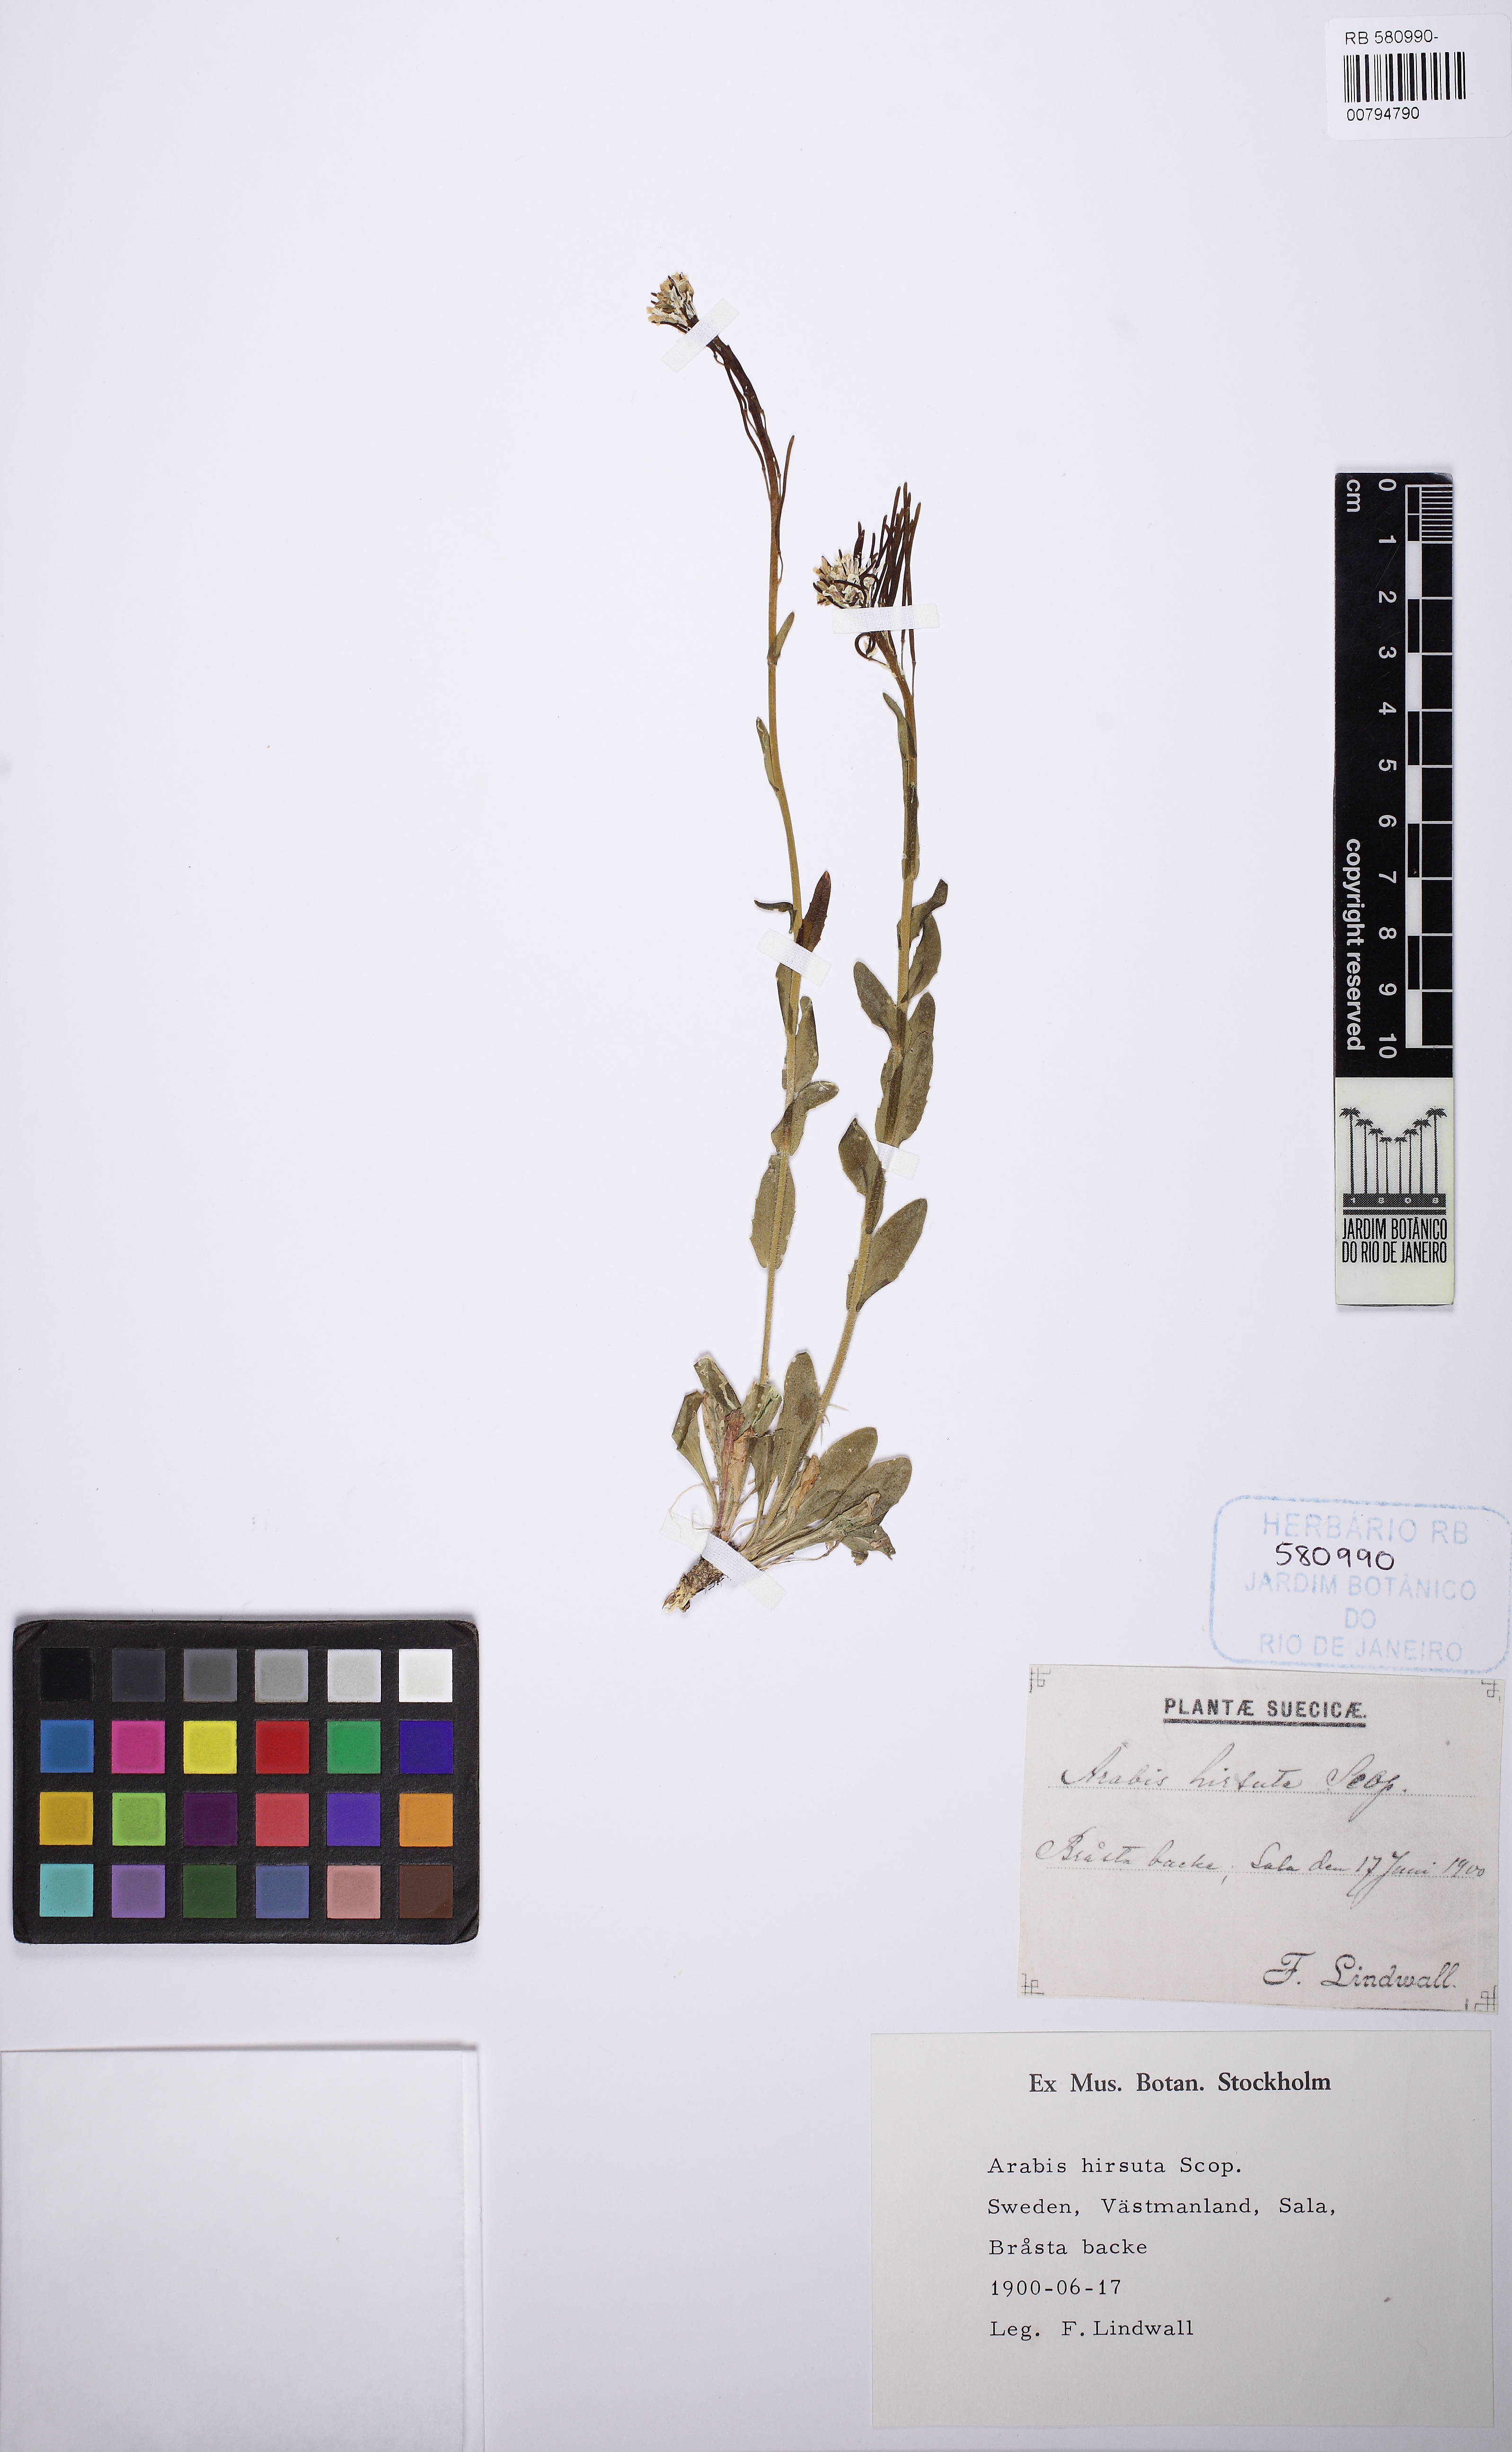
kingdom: Plantae
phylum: Tracheophyta
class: Magnoliopsida
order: Brassicales
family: Brassicaceae
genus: Arabis
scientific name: Arabis ciliata
